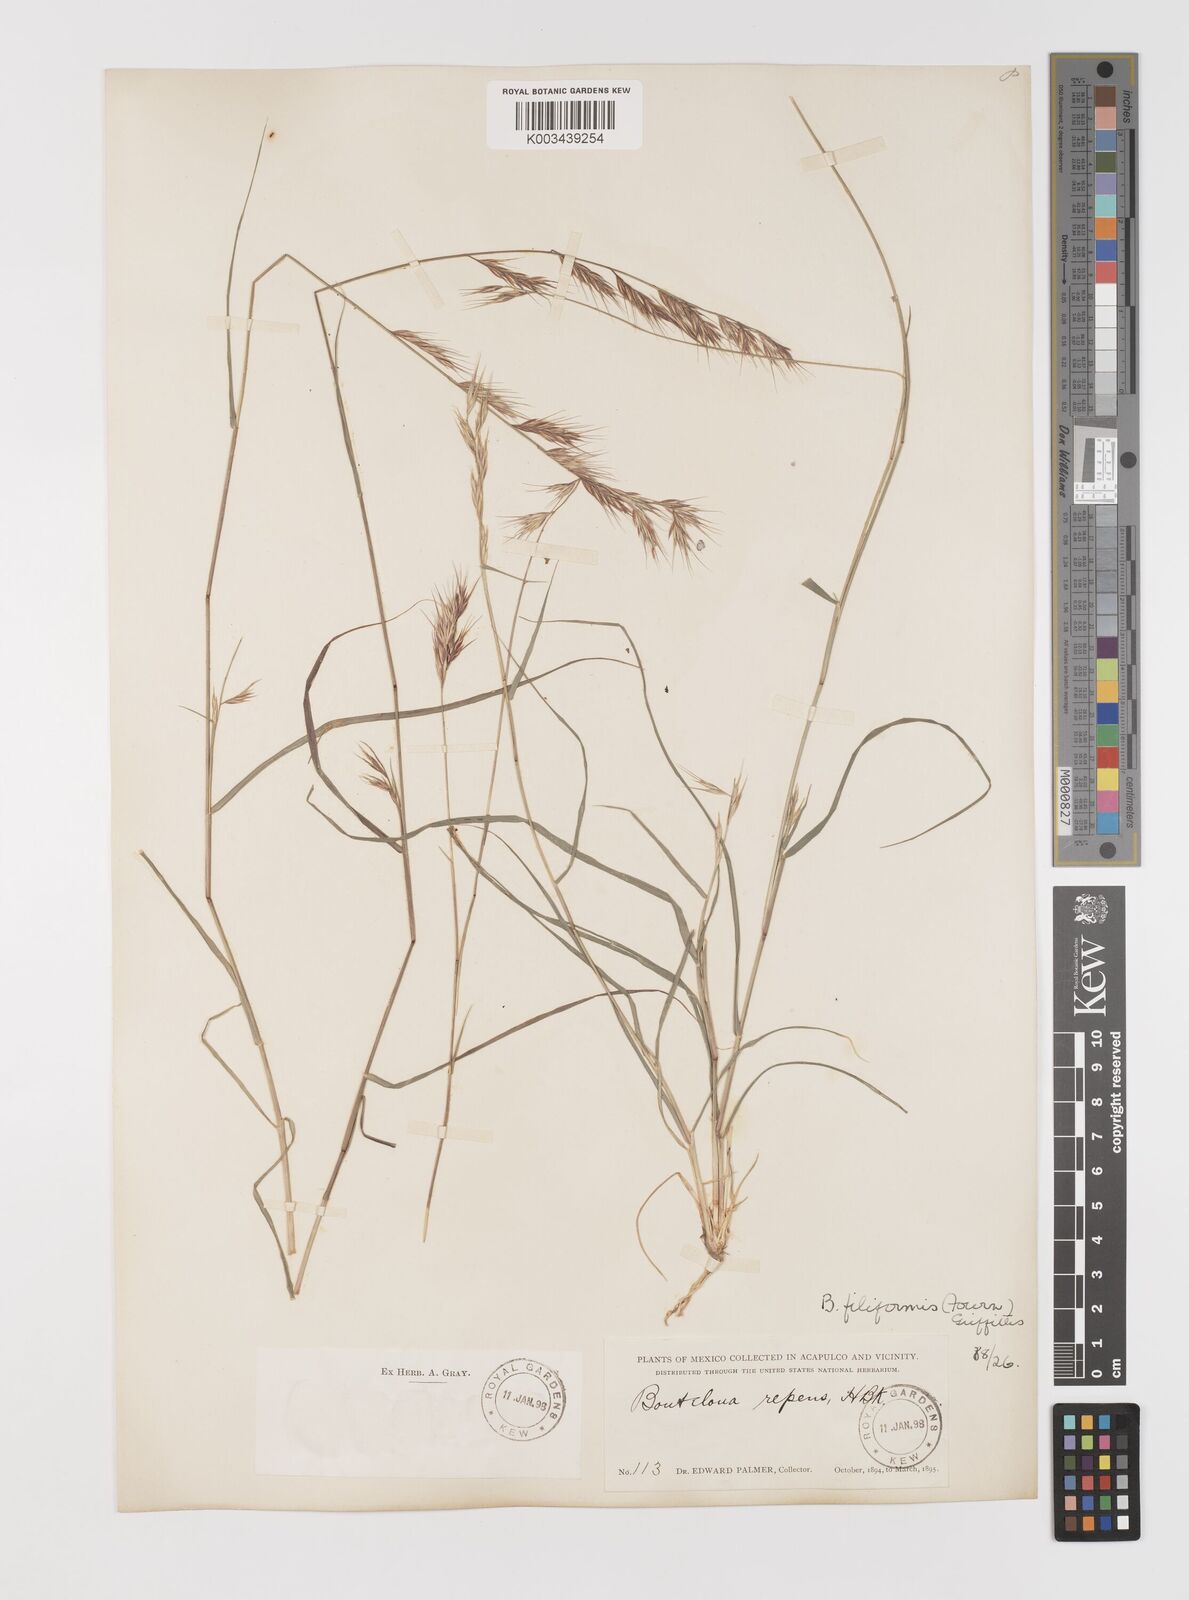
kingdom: Plantae
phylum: Tracheophyta
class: Liliopsida
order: Poales
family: Poaceae
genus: Bouteloua
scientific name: Bouteloua repens
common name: Slender grama
